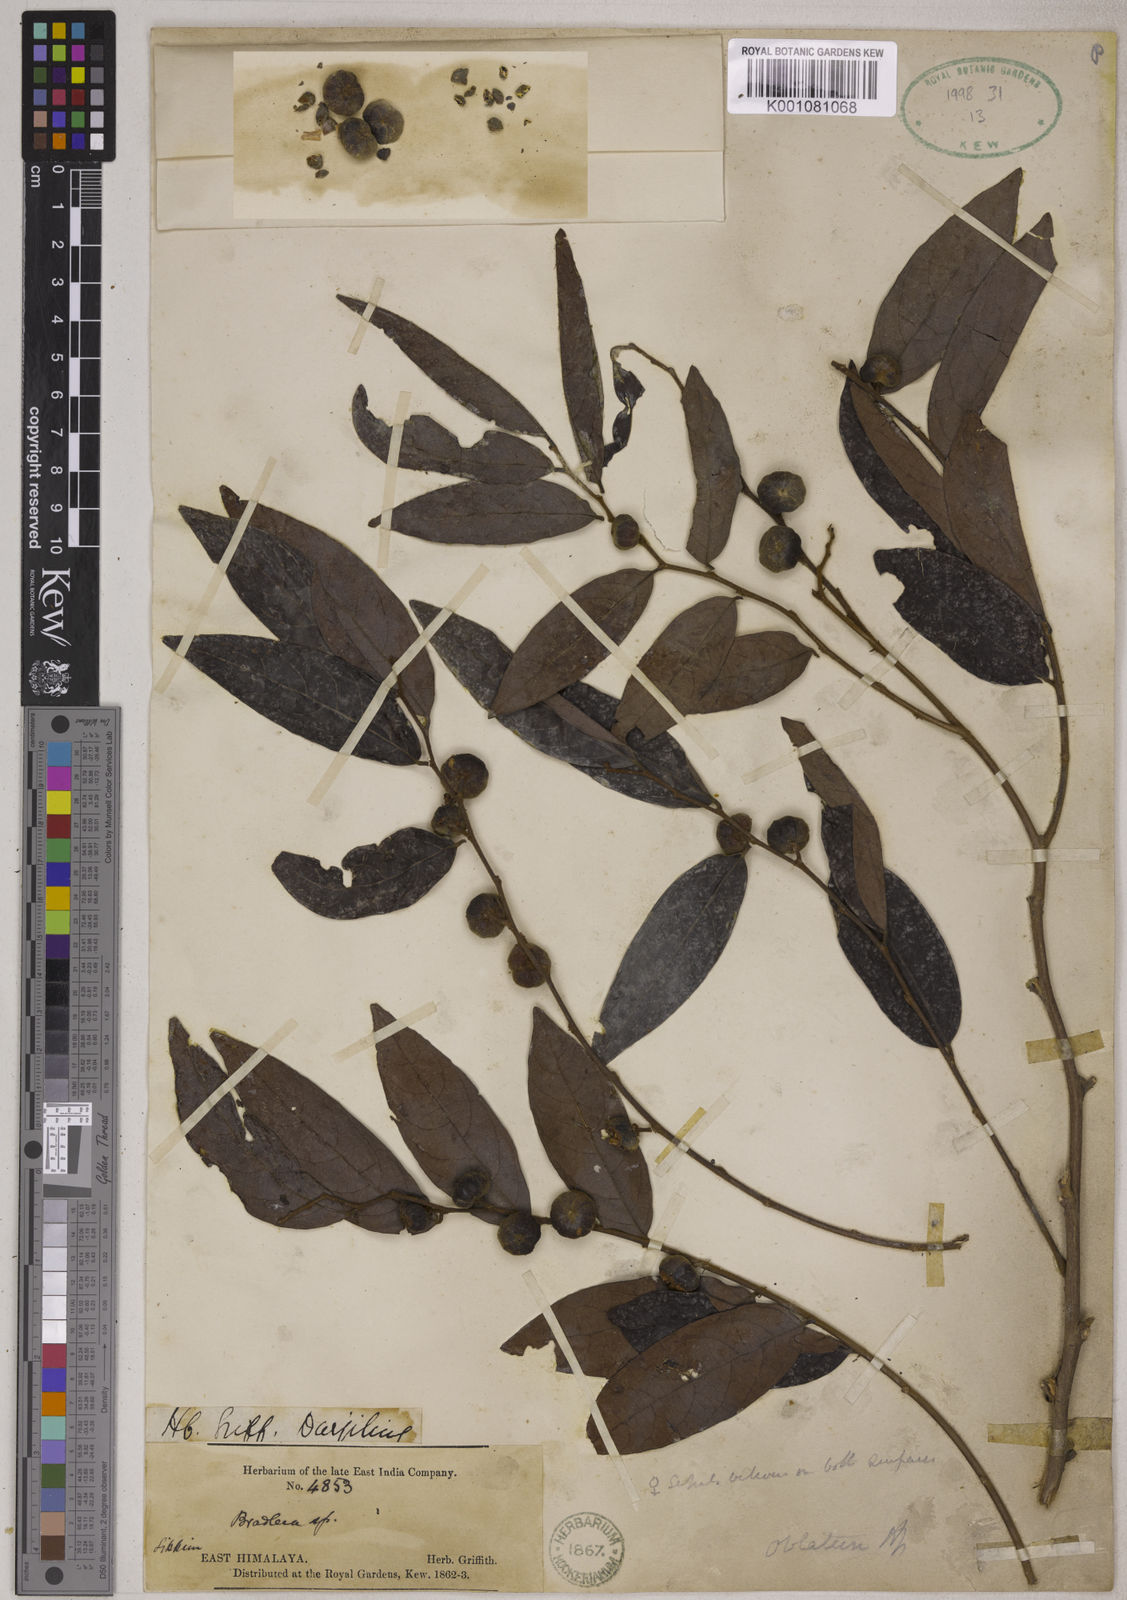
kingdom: Plantae
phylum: Tracheophyta
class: Magnoliopsida
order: Malpighiales
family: Phyllanthaceae
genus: Glochidion
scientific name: Glochidion oblatum
